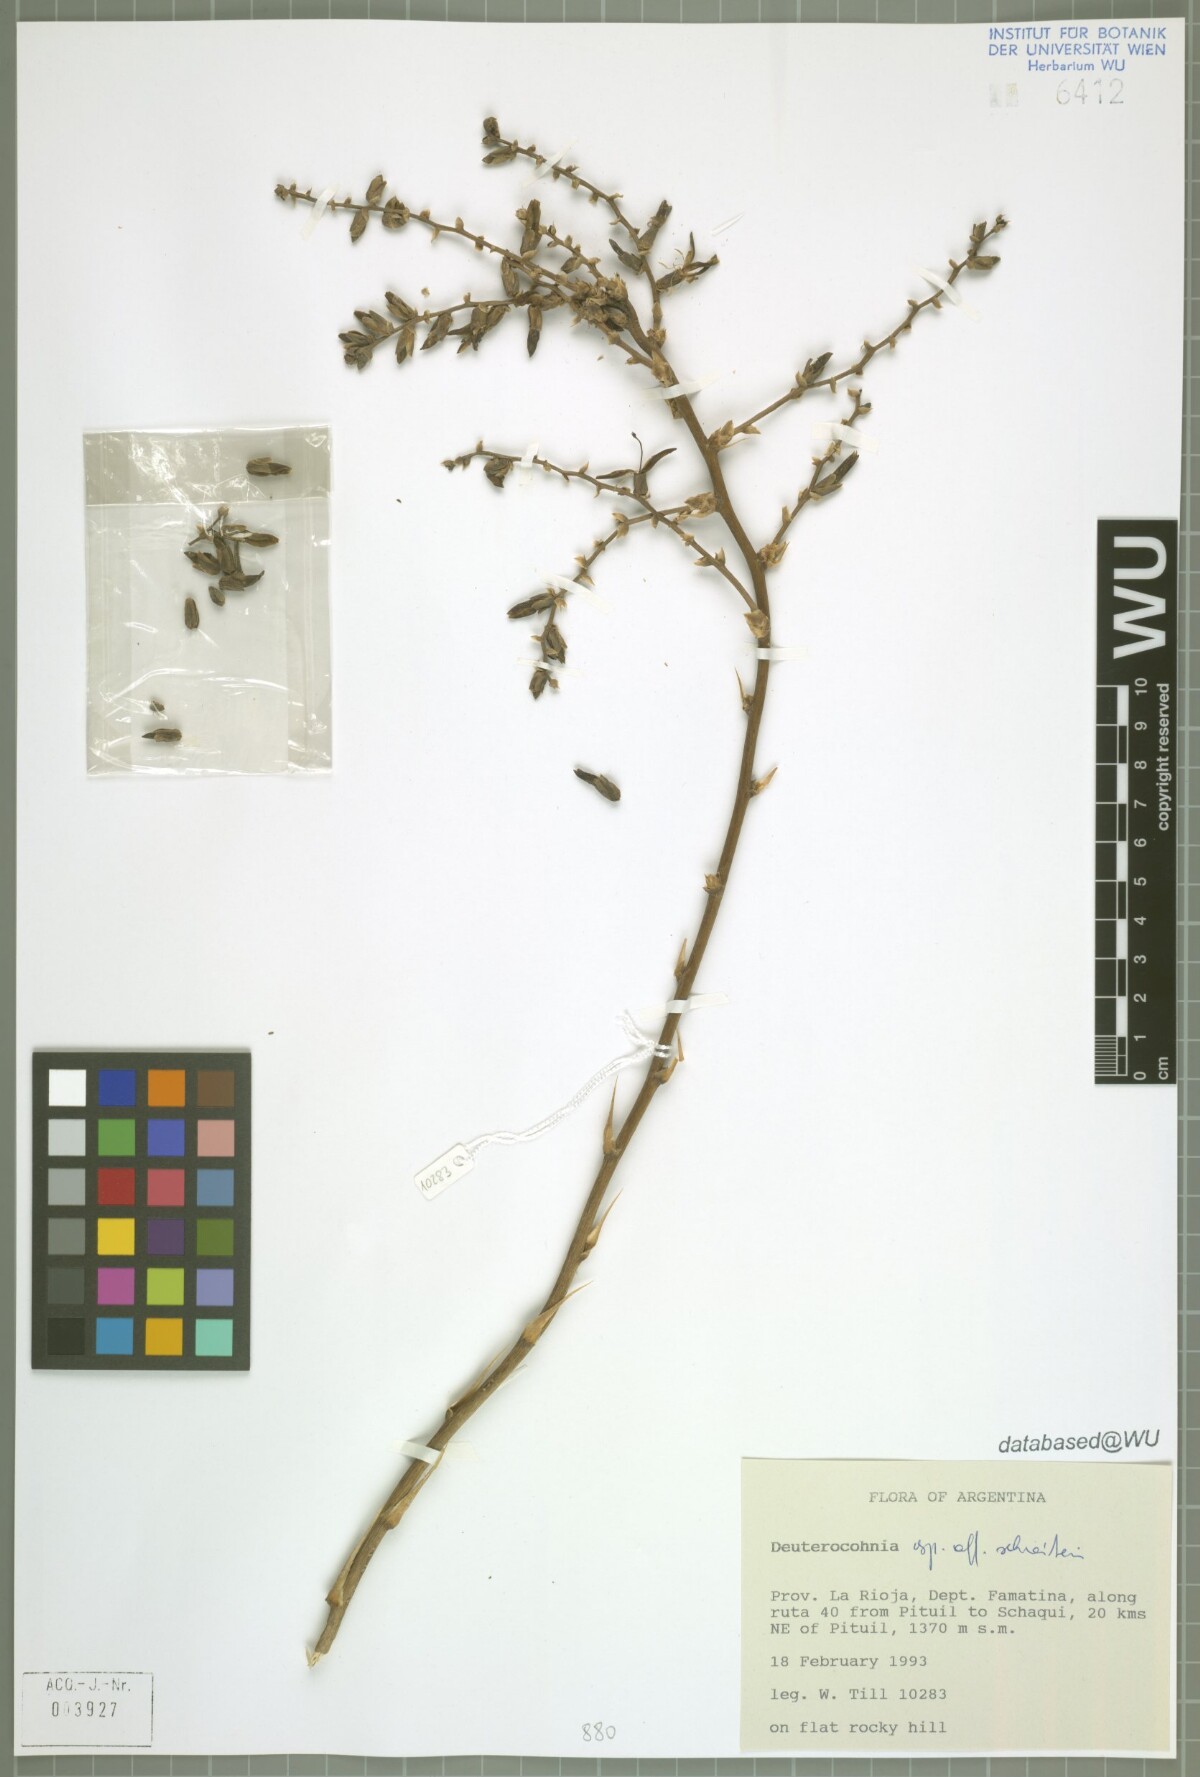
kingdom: Plantae
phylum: Tracheophyta
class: Liliopsida
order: Poales
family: Bromeliaceae
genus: Deuterocohnia
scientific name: Deuterocohnia
